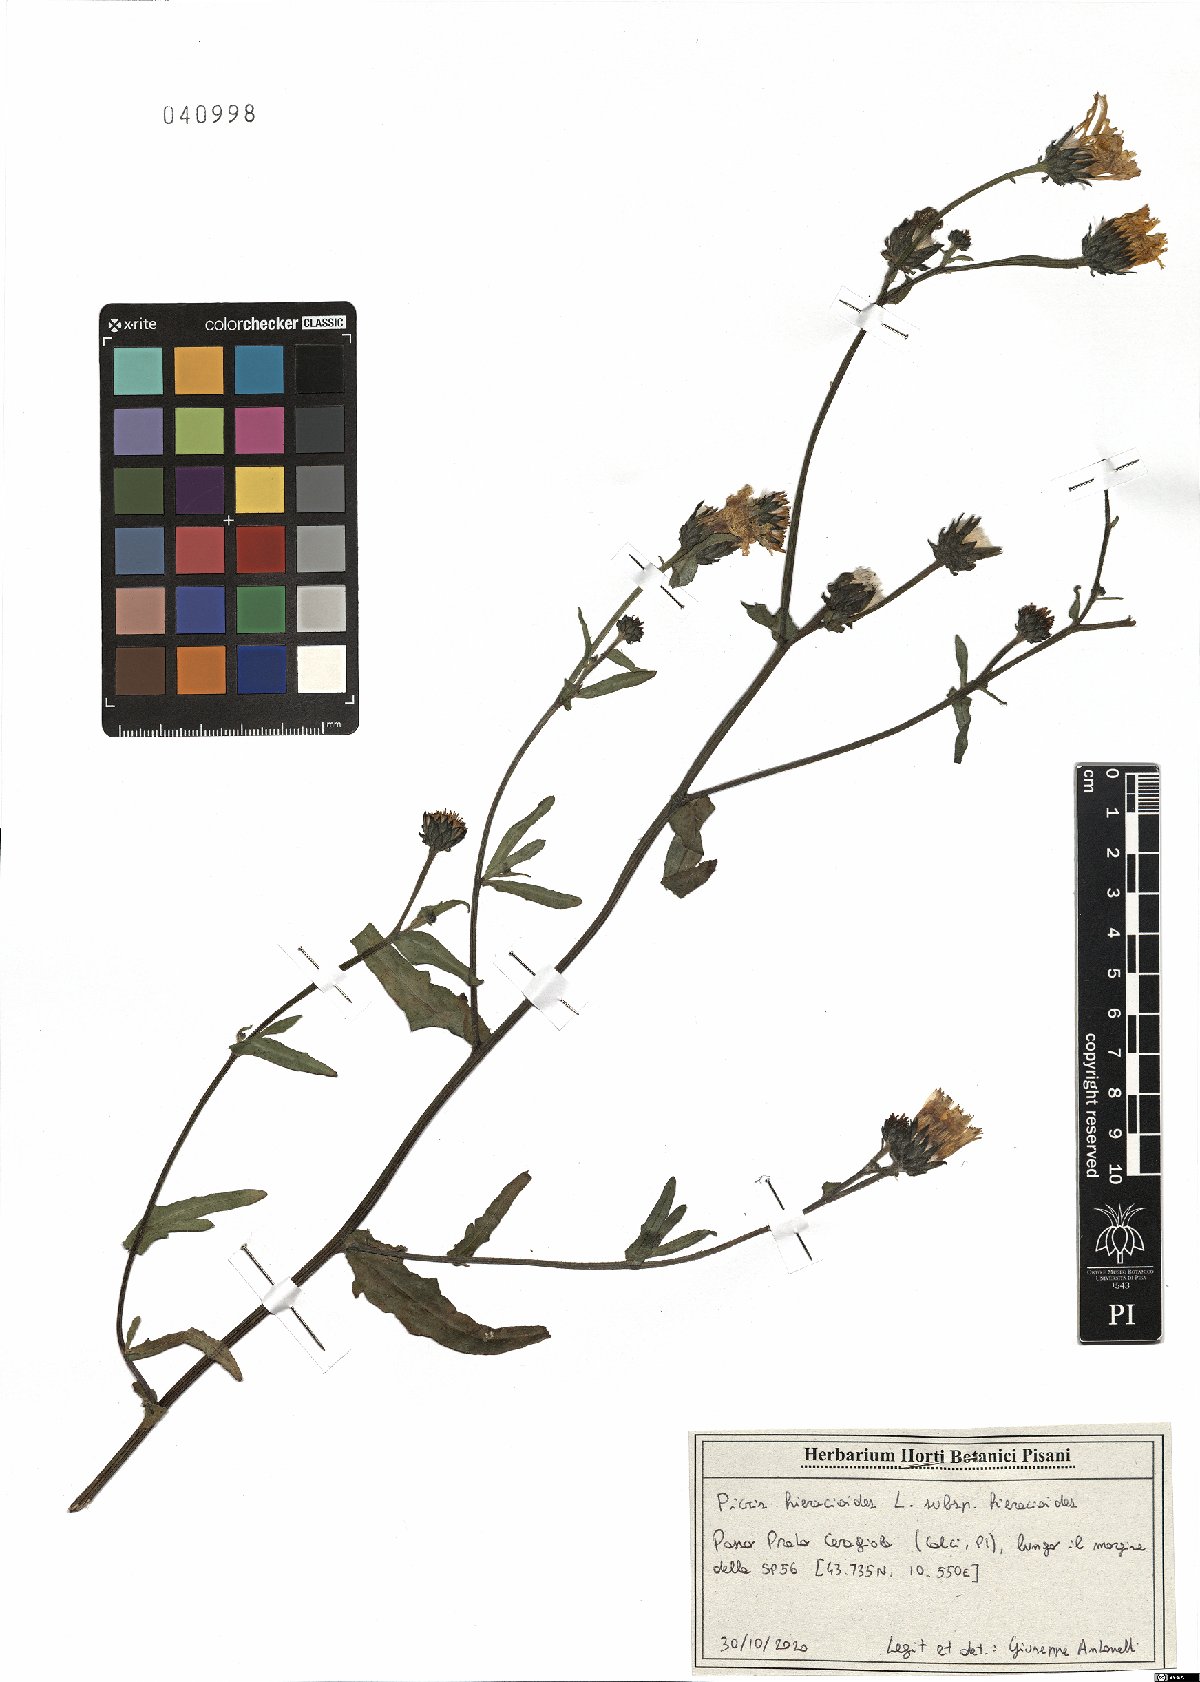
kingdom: Plantae
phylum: Tracheophyta
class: Magnoliopsida
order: Asterales
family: Asteraceae
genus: Picris
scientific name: Picris hieracioides
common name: Hawkweed oxtongue
